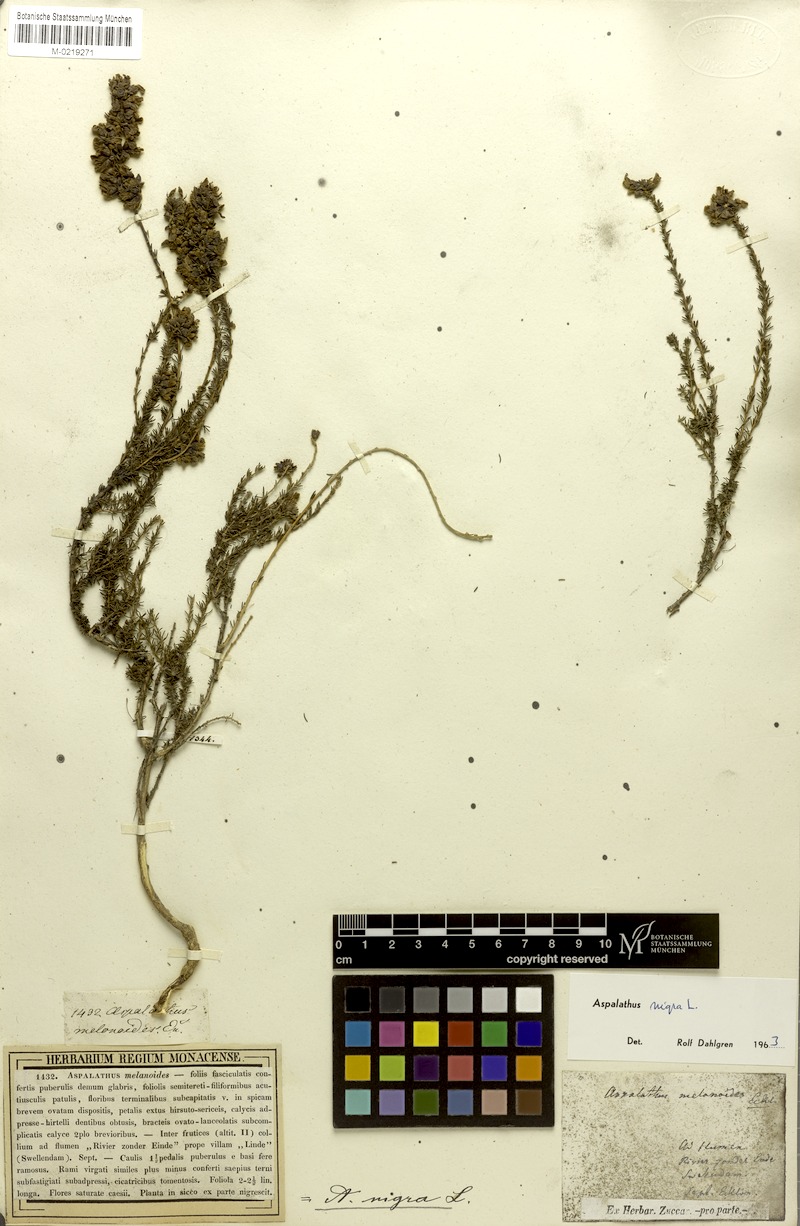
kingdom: Plantae
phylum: Tracheophyta
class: Magnoliopsida
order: Fabales
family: Fabaceae
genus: Aspalathus
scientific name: Aspalathus nigra
